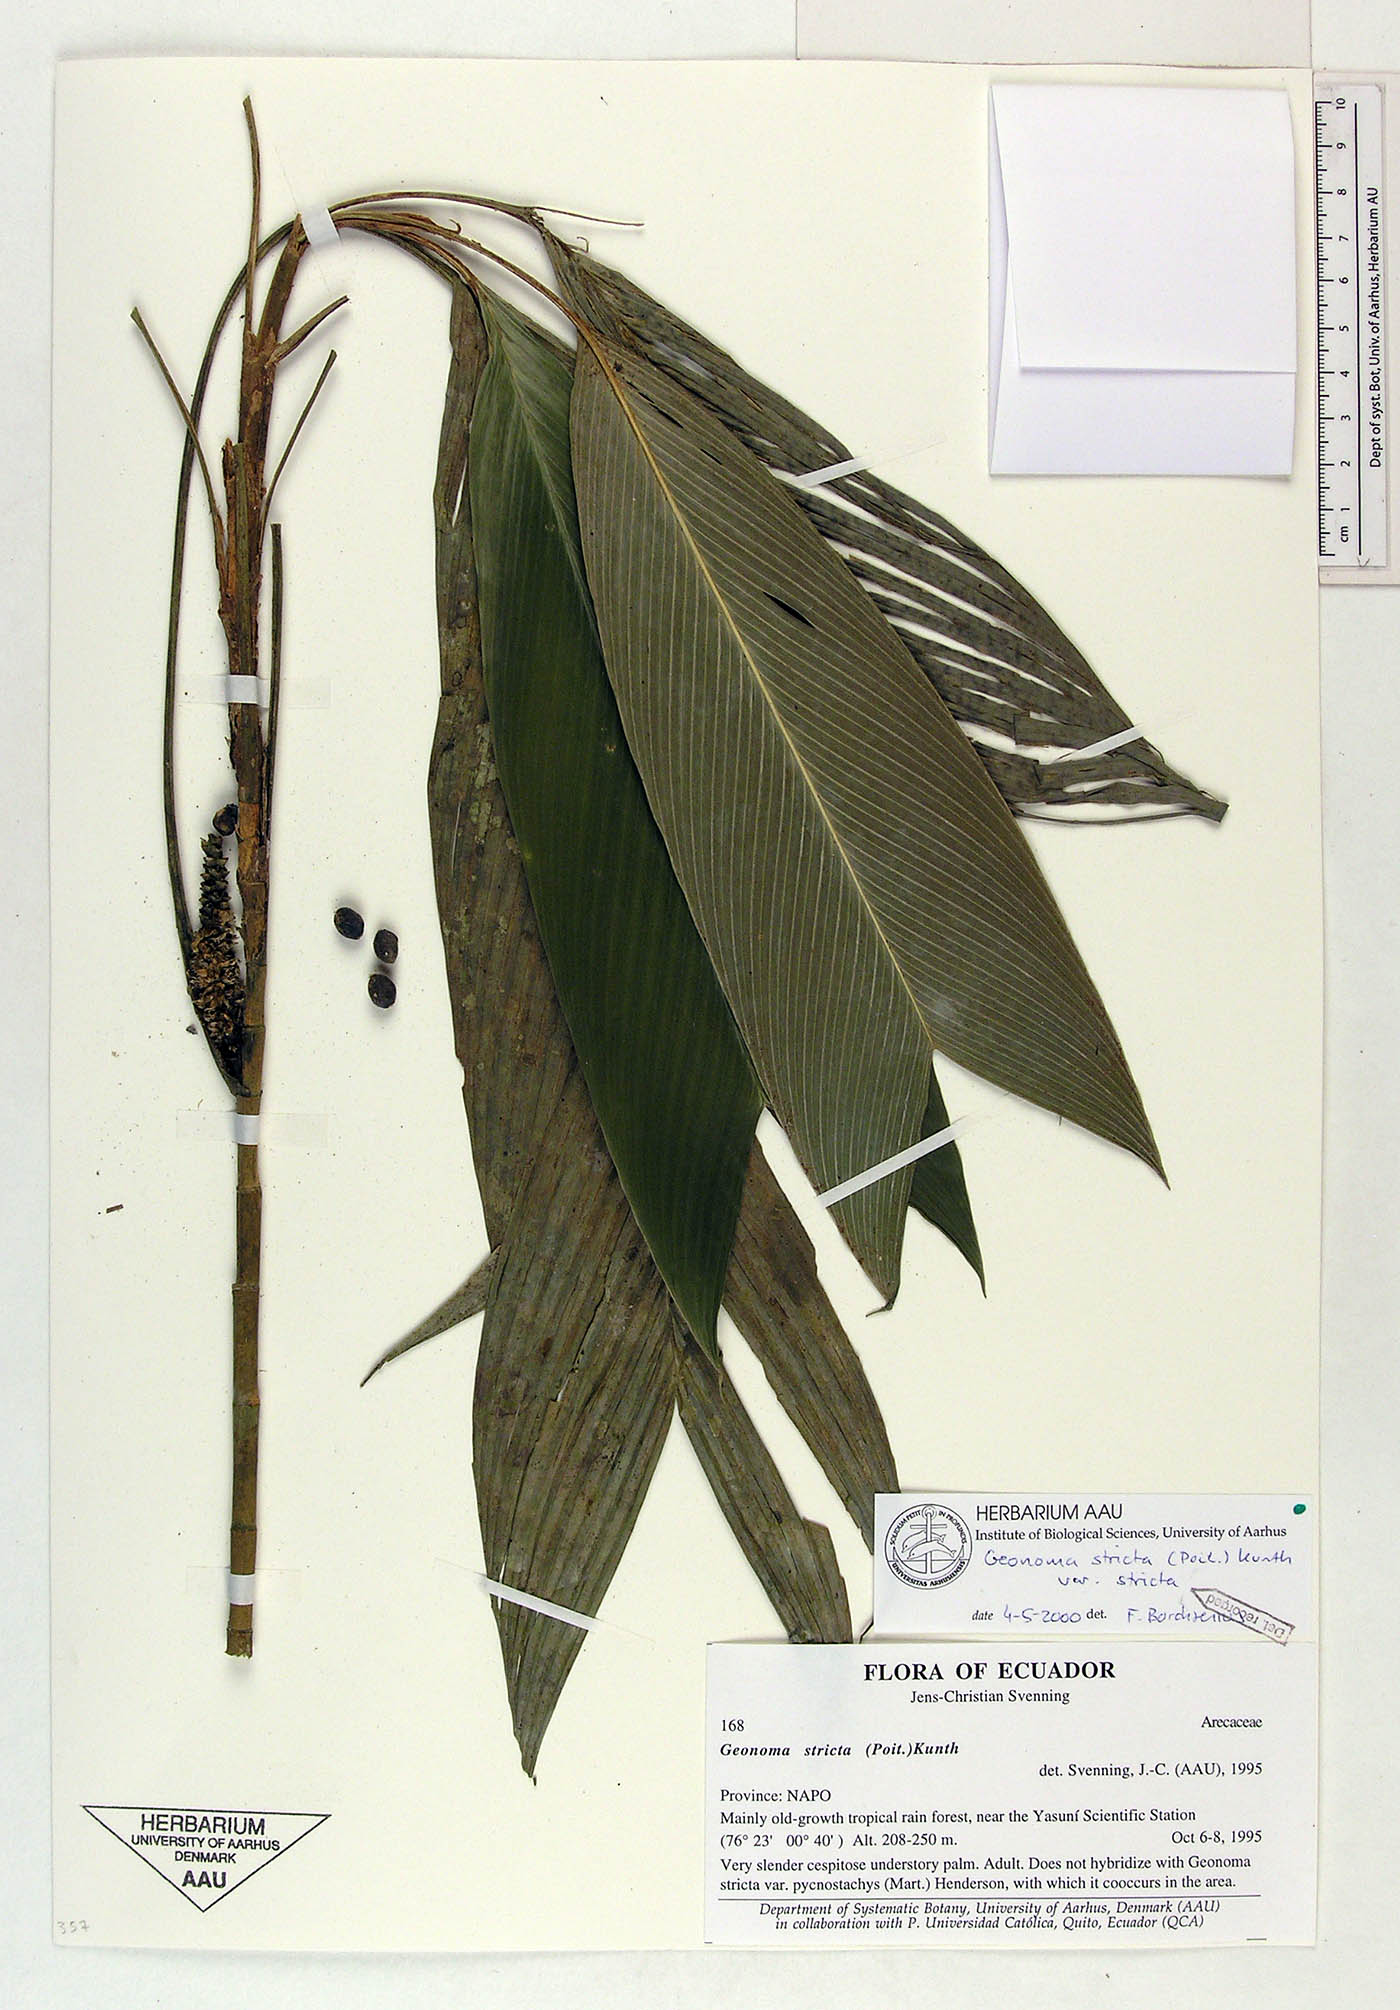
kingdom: Plantae
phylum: Tracheophyta
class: Liliopsida
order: Arecales
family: Arecaceae
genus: Geonoma
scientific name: Geonoma stricta
